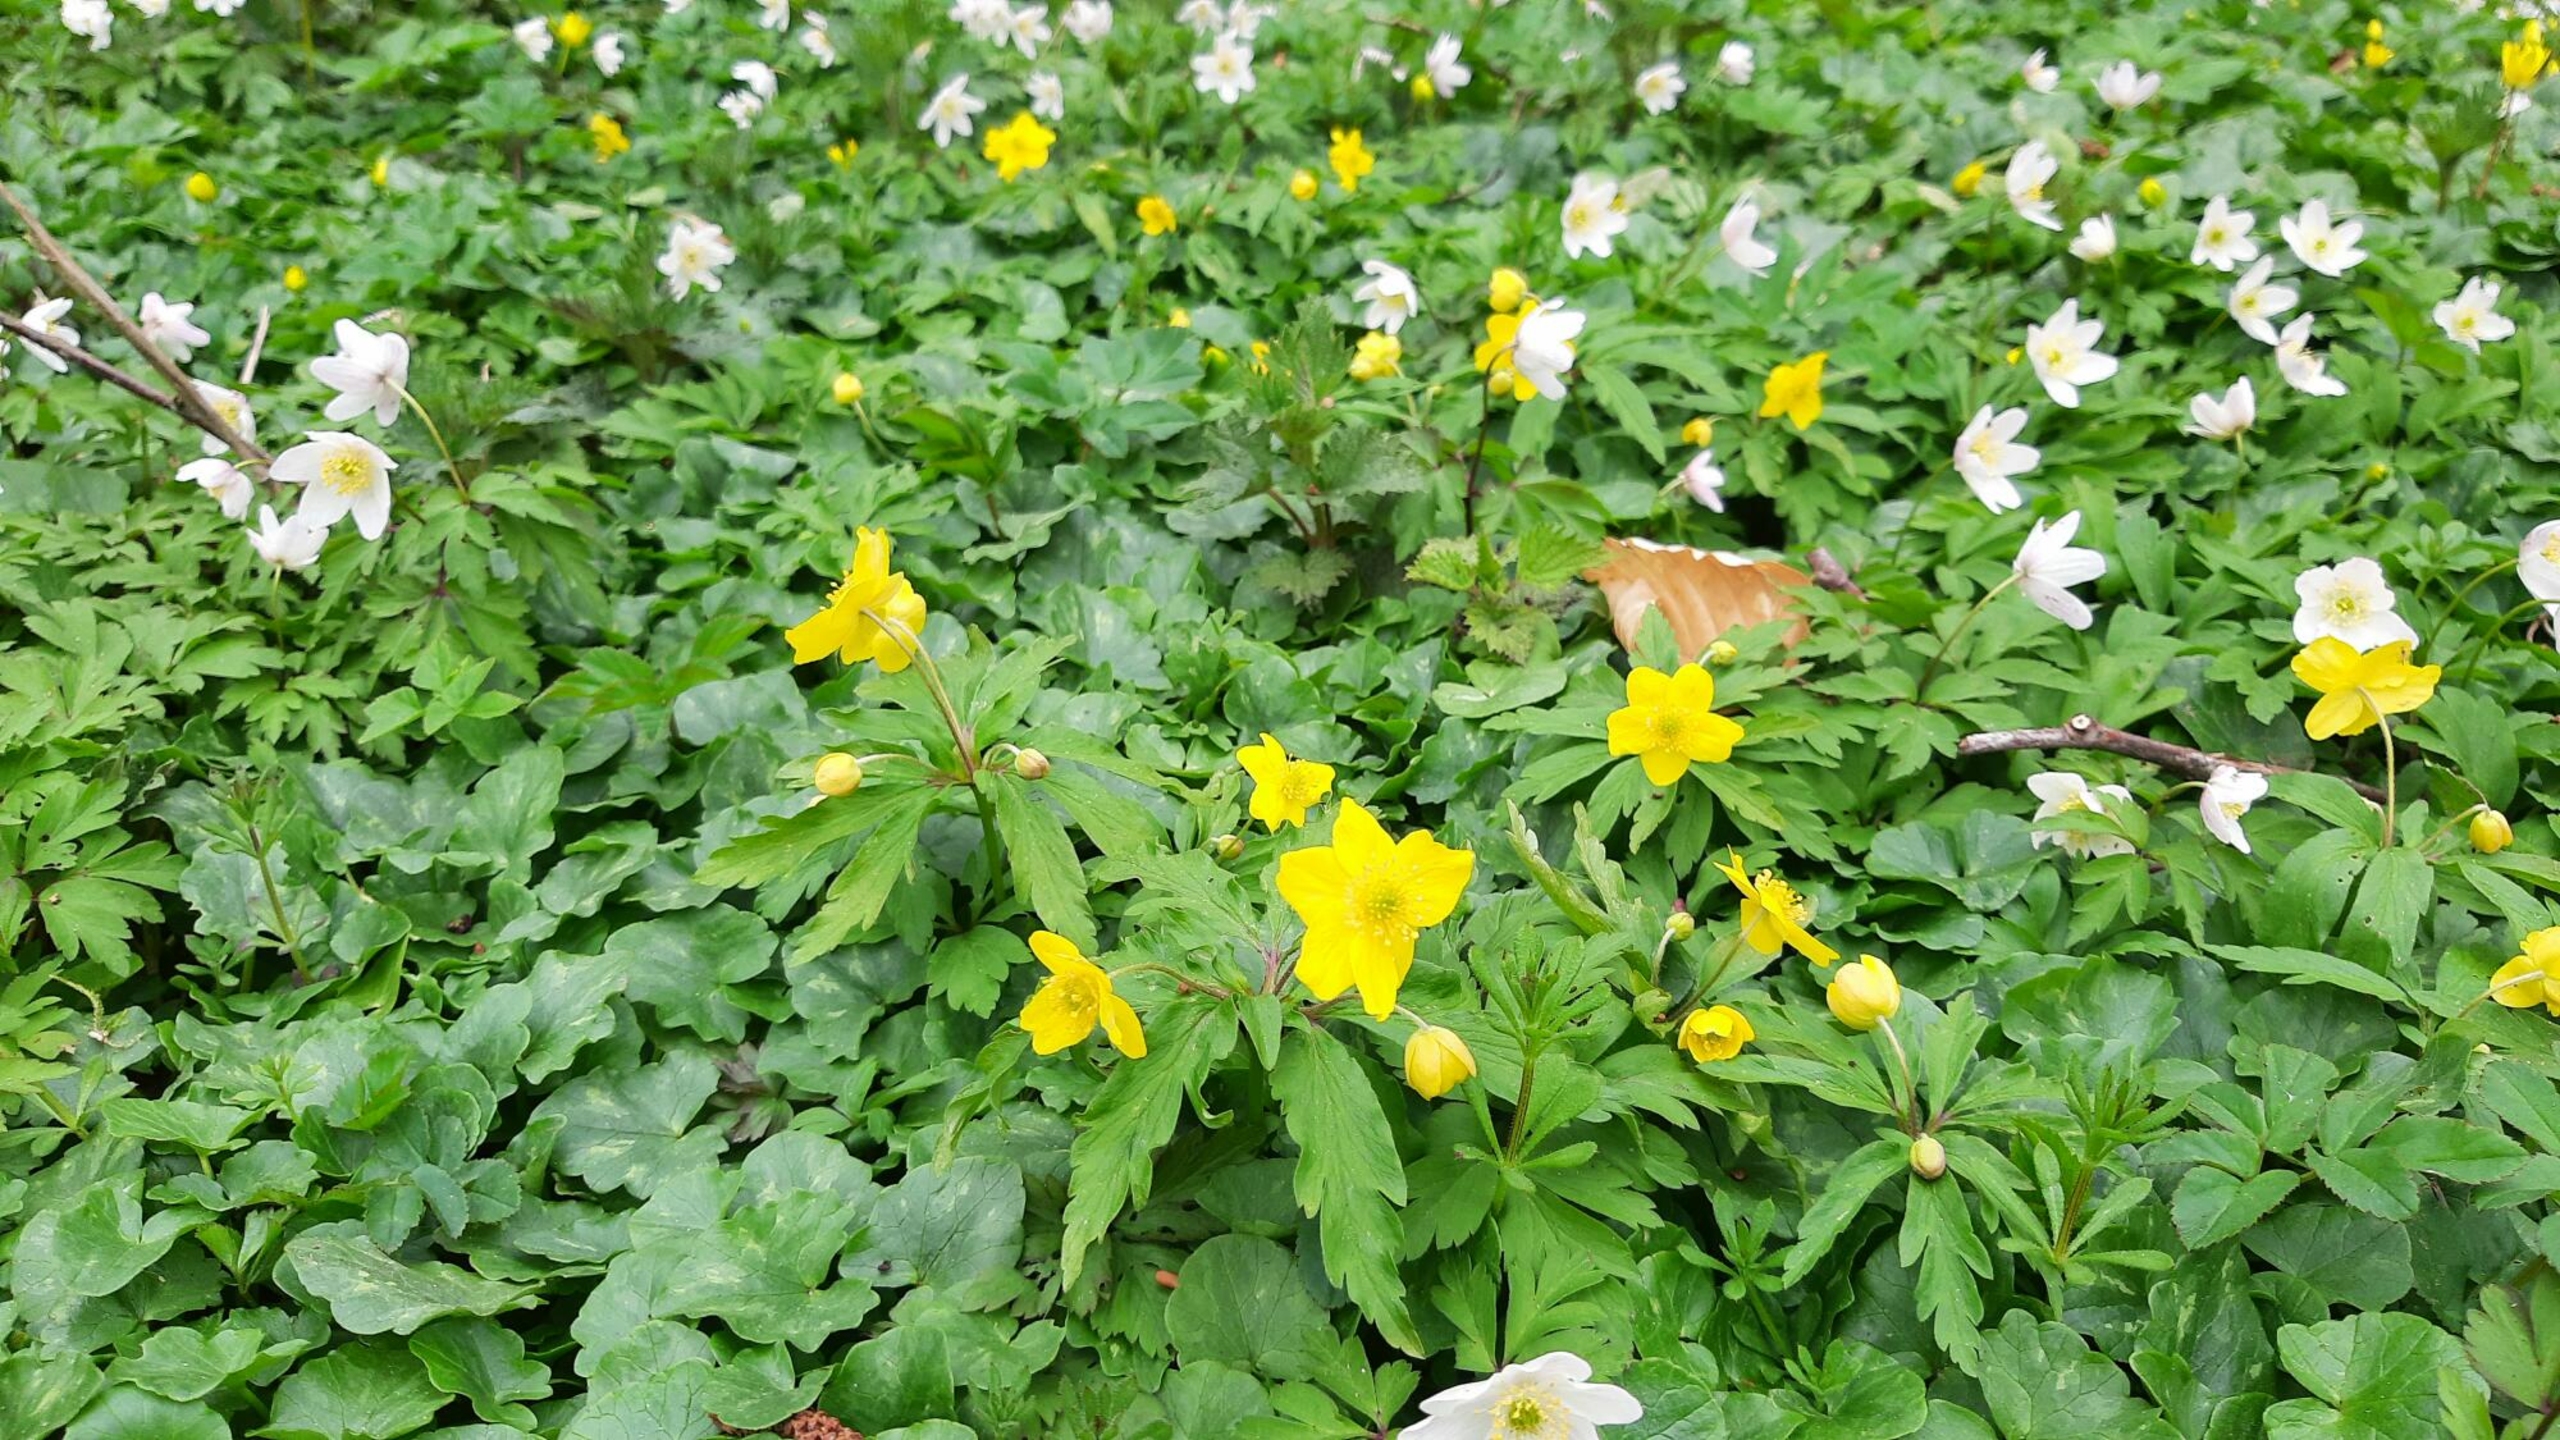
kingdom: Plantae
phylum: Tracheophyta
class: Magnoliopsida
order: Ranunculales
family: Ranunculaceae
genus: Anemone
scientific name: Anemone ranunculoides
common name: Gul anemone
